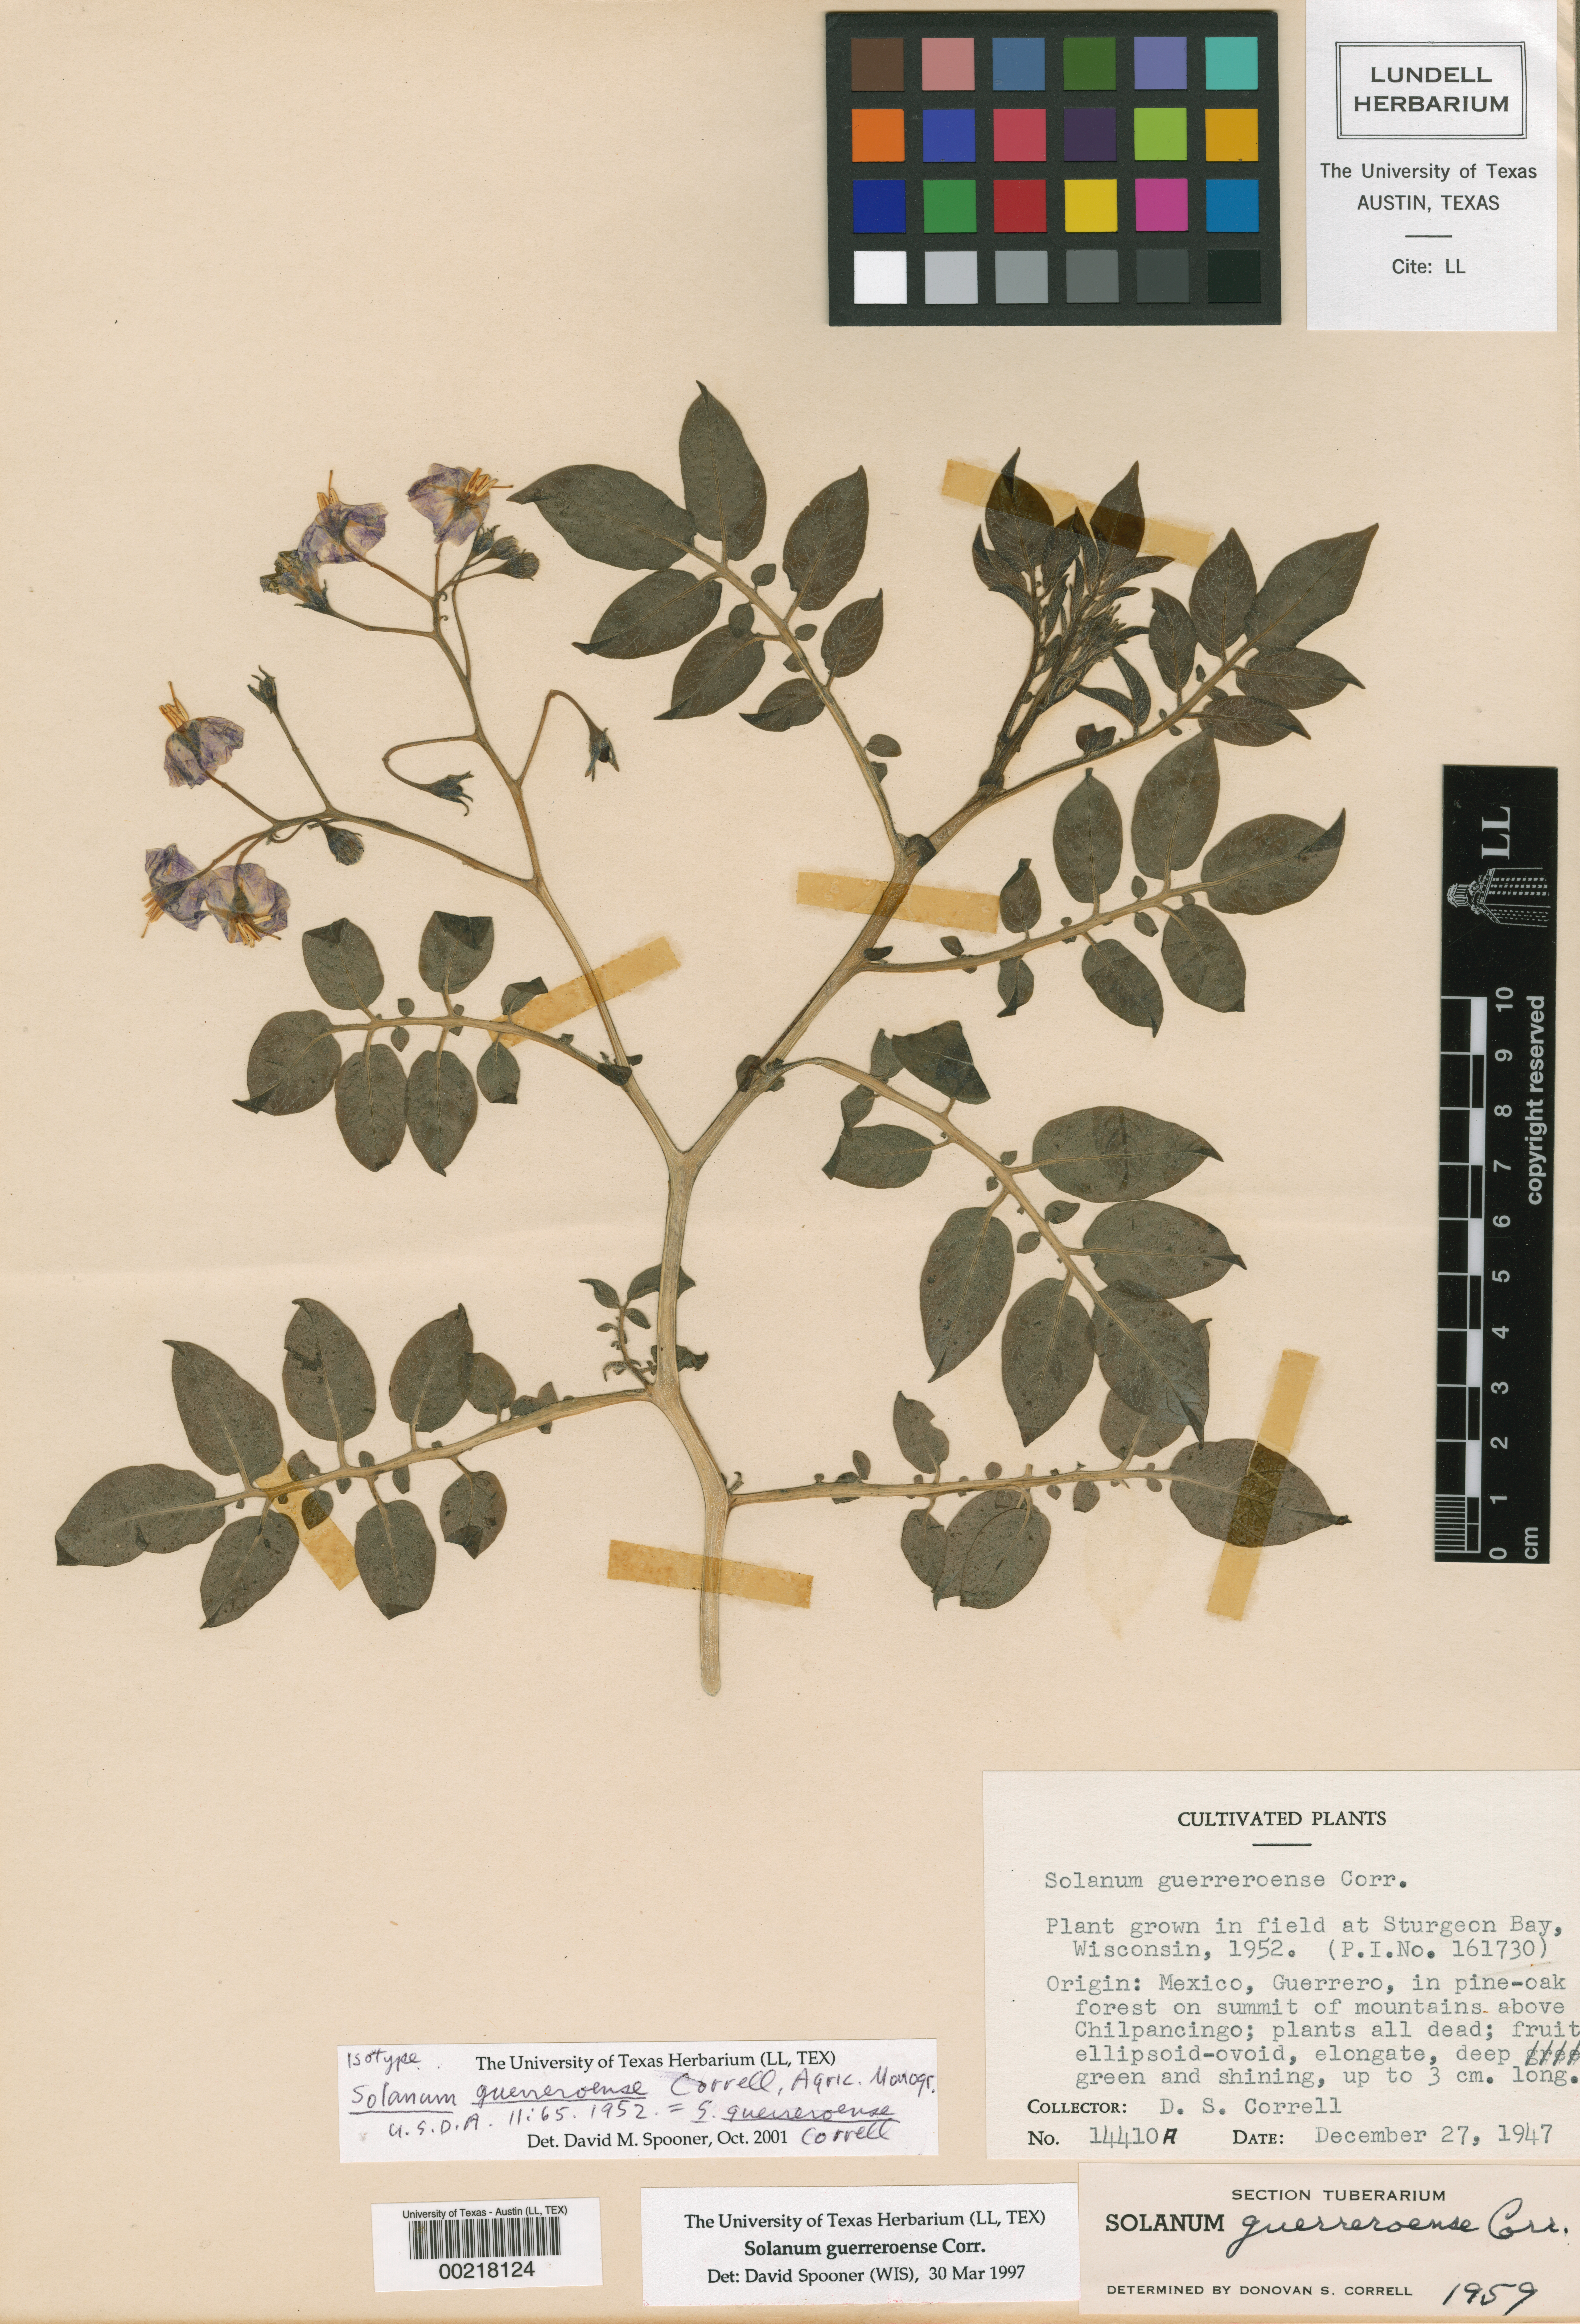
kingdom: Plantae
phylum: Tracheophyta
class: Magnoliopsida
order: Solanales
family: Solanaceae
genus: Solanum
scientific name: Solanum guerreroense
